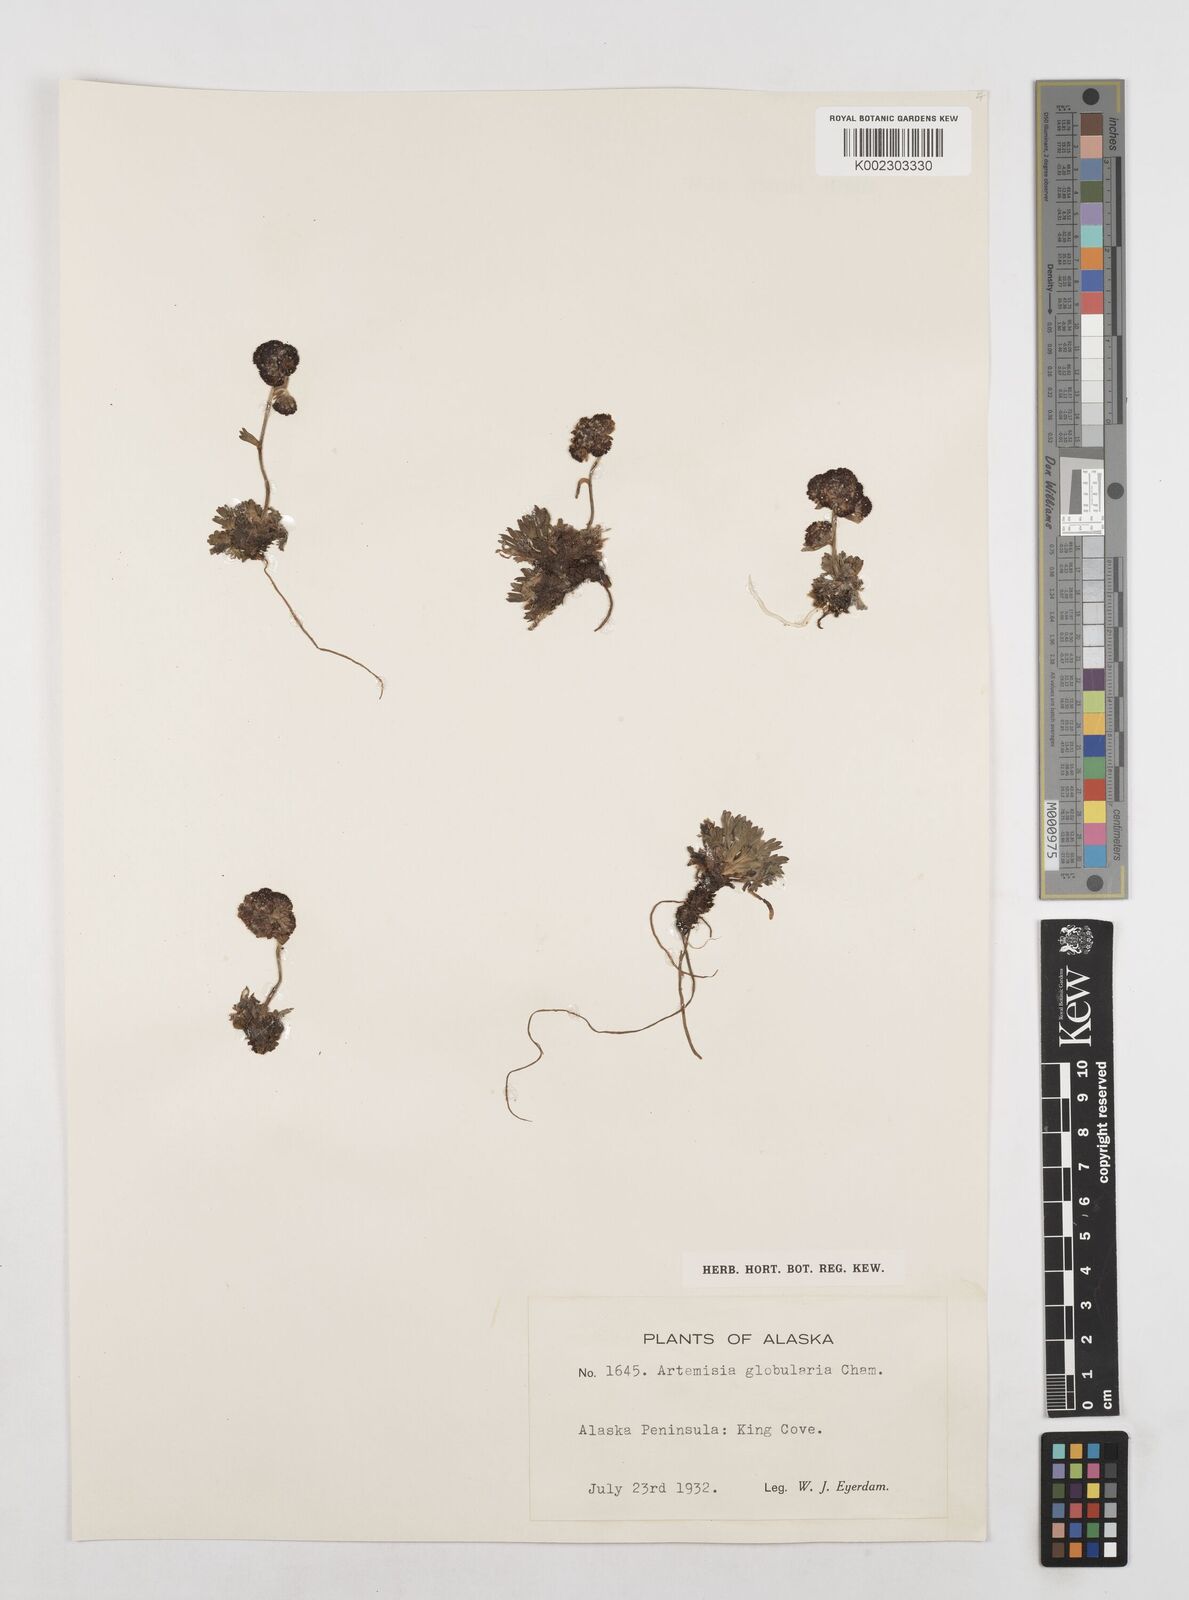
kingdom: Plantae
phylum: Tracheophyta
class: Magnoliopsida
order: Asterales
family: Asteraceae
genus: Artemisia
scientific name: Artemisia globularia
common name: Purple wormwood
